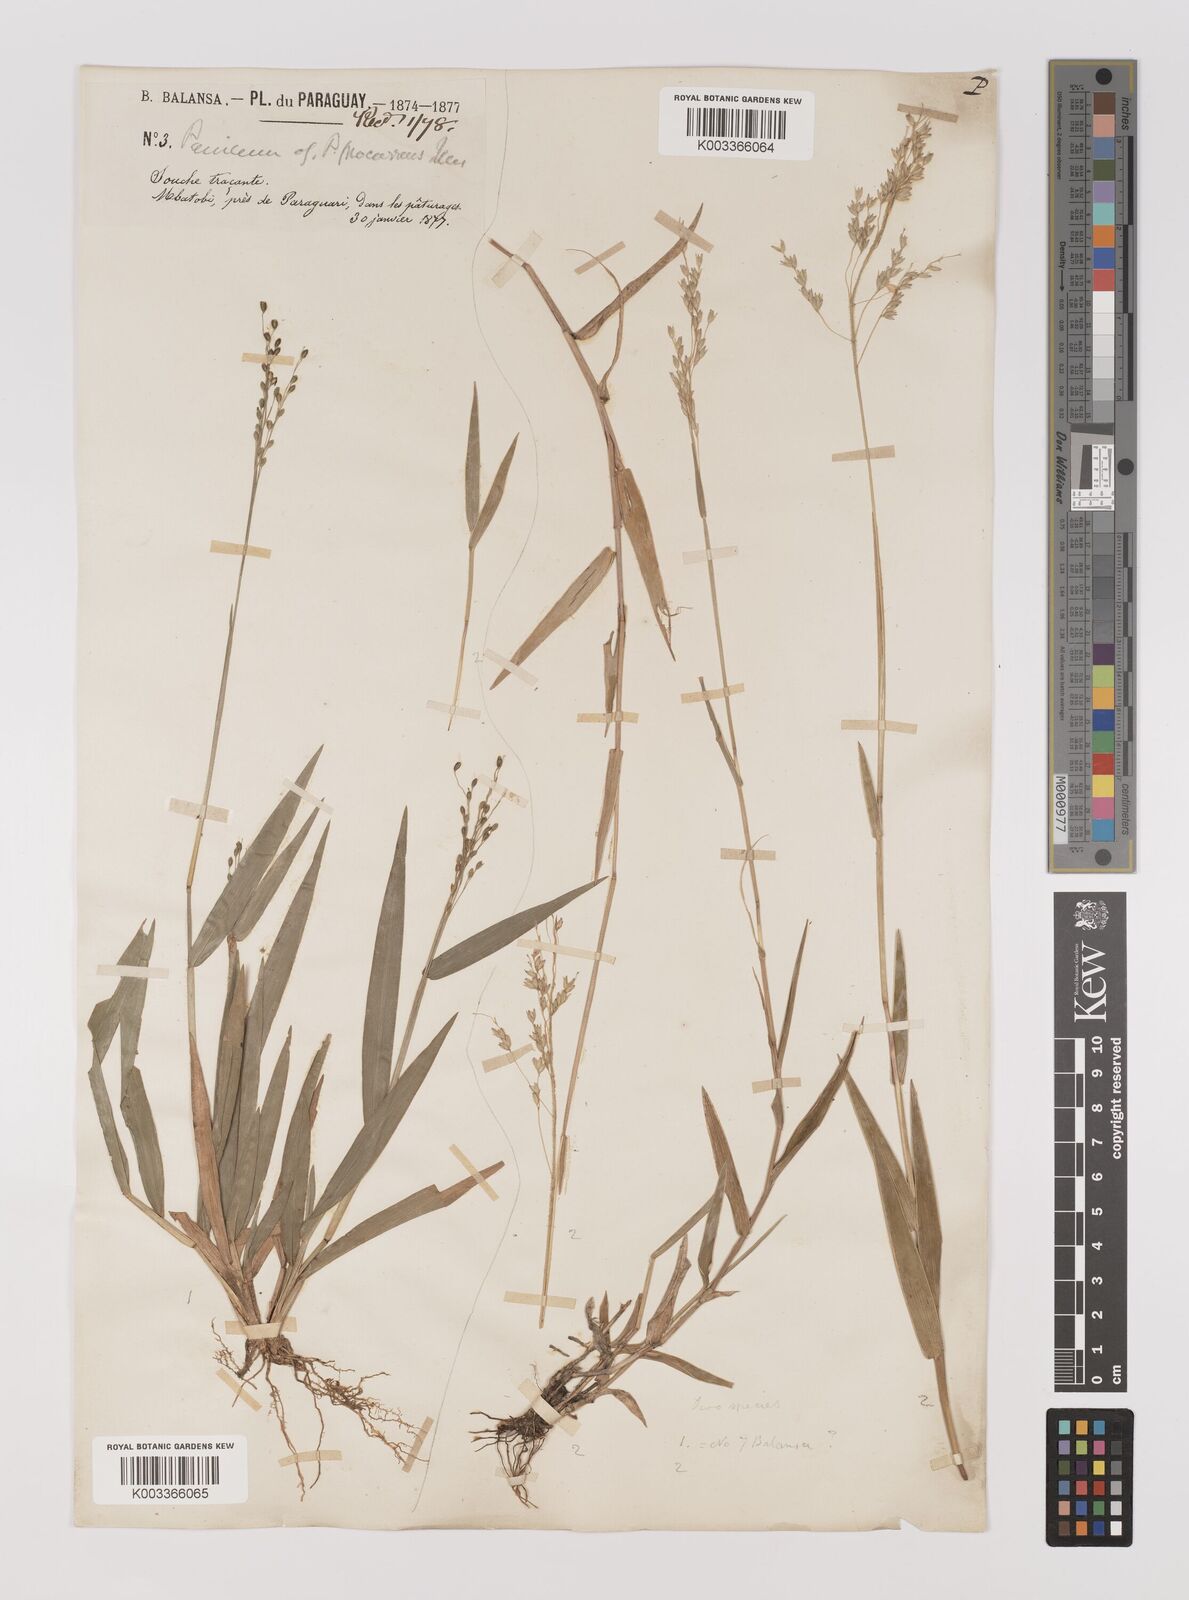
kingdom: Plantae
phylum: Tracheophyta
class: Liliopsida
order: Poales
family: Poaceae
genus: Oedochloa
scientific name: Oedochloa procurrens
